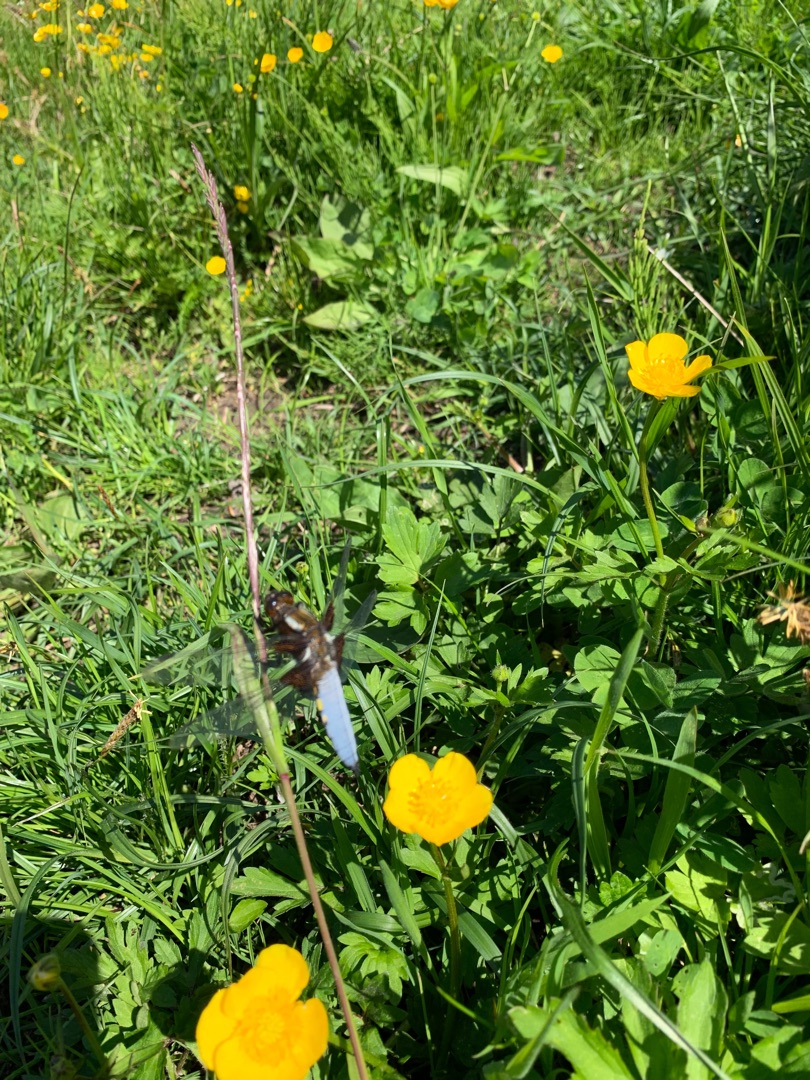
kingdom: Animalia
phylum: Arthropoda
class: Insecta
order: Odonata
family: Libellulidae
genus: Libellula
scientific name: Libellula depressa
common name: Blå libel
